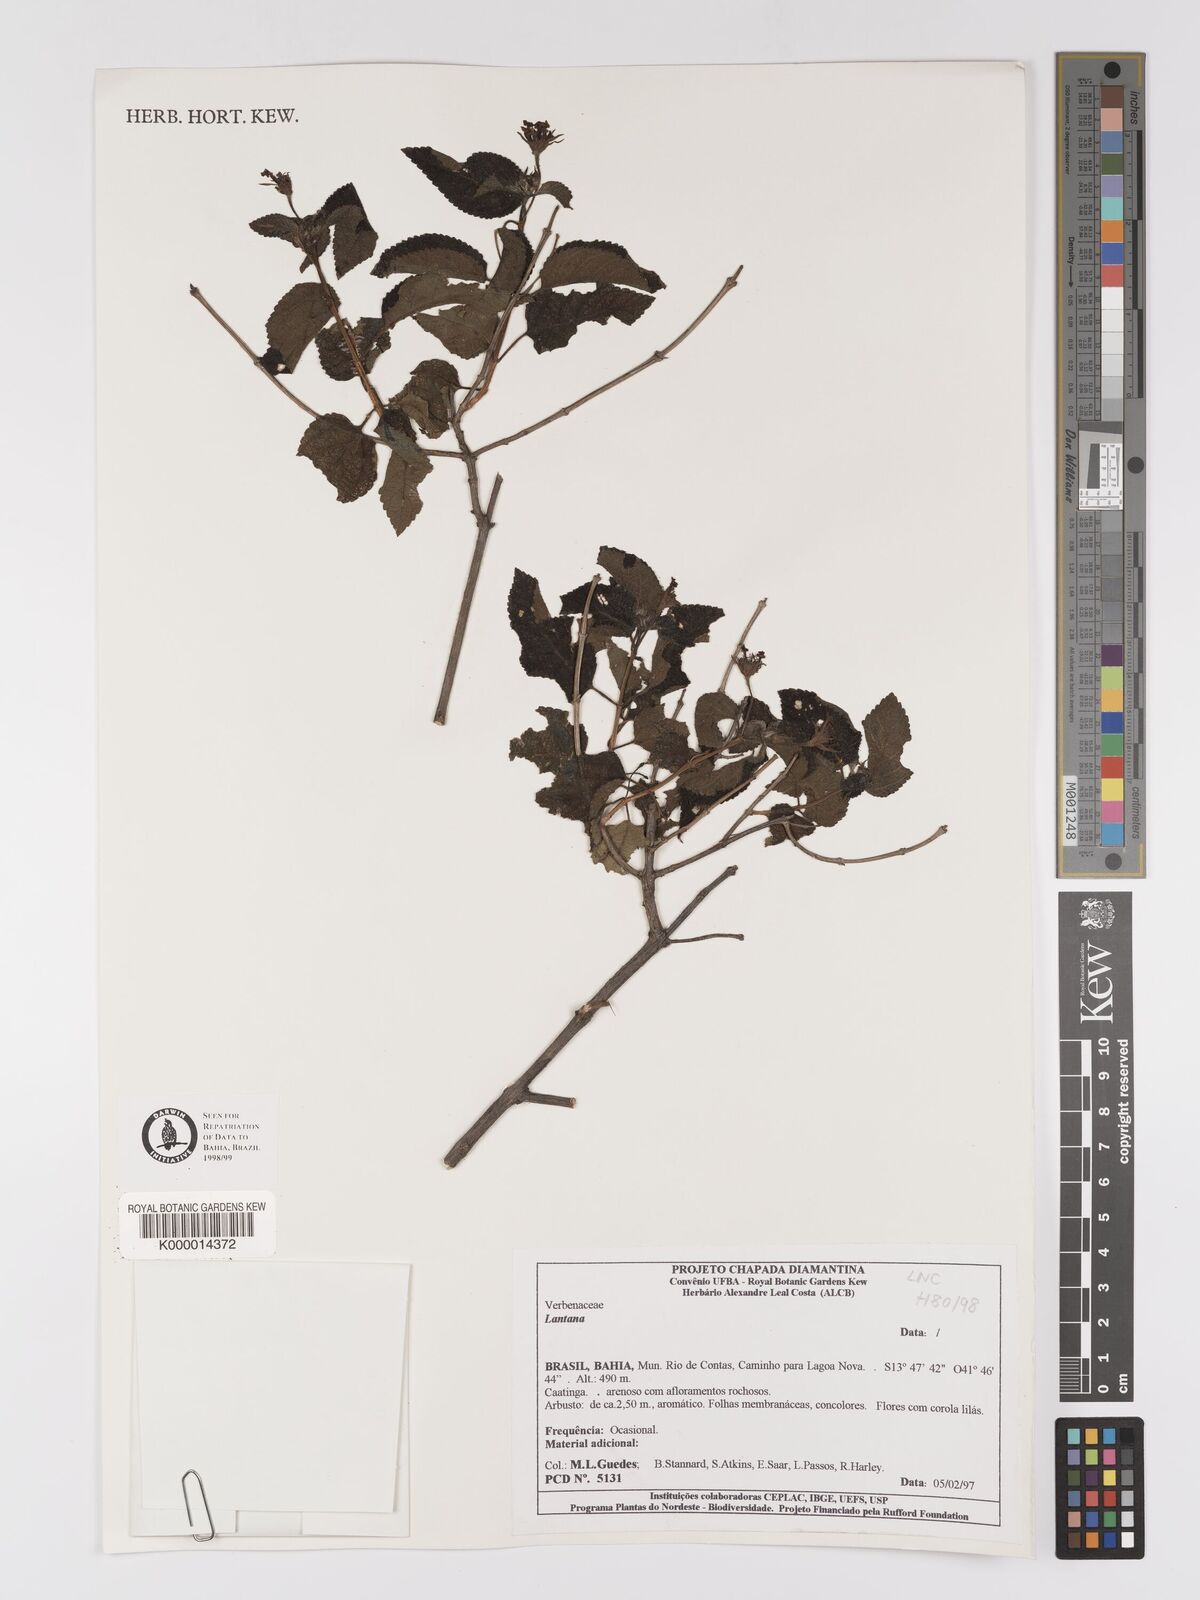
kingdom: Plantae
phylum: Tracheophyta
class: Magnoliopsida
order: Lamiales
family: Verbenaceae
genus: Lantana
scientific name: Lantana
